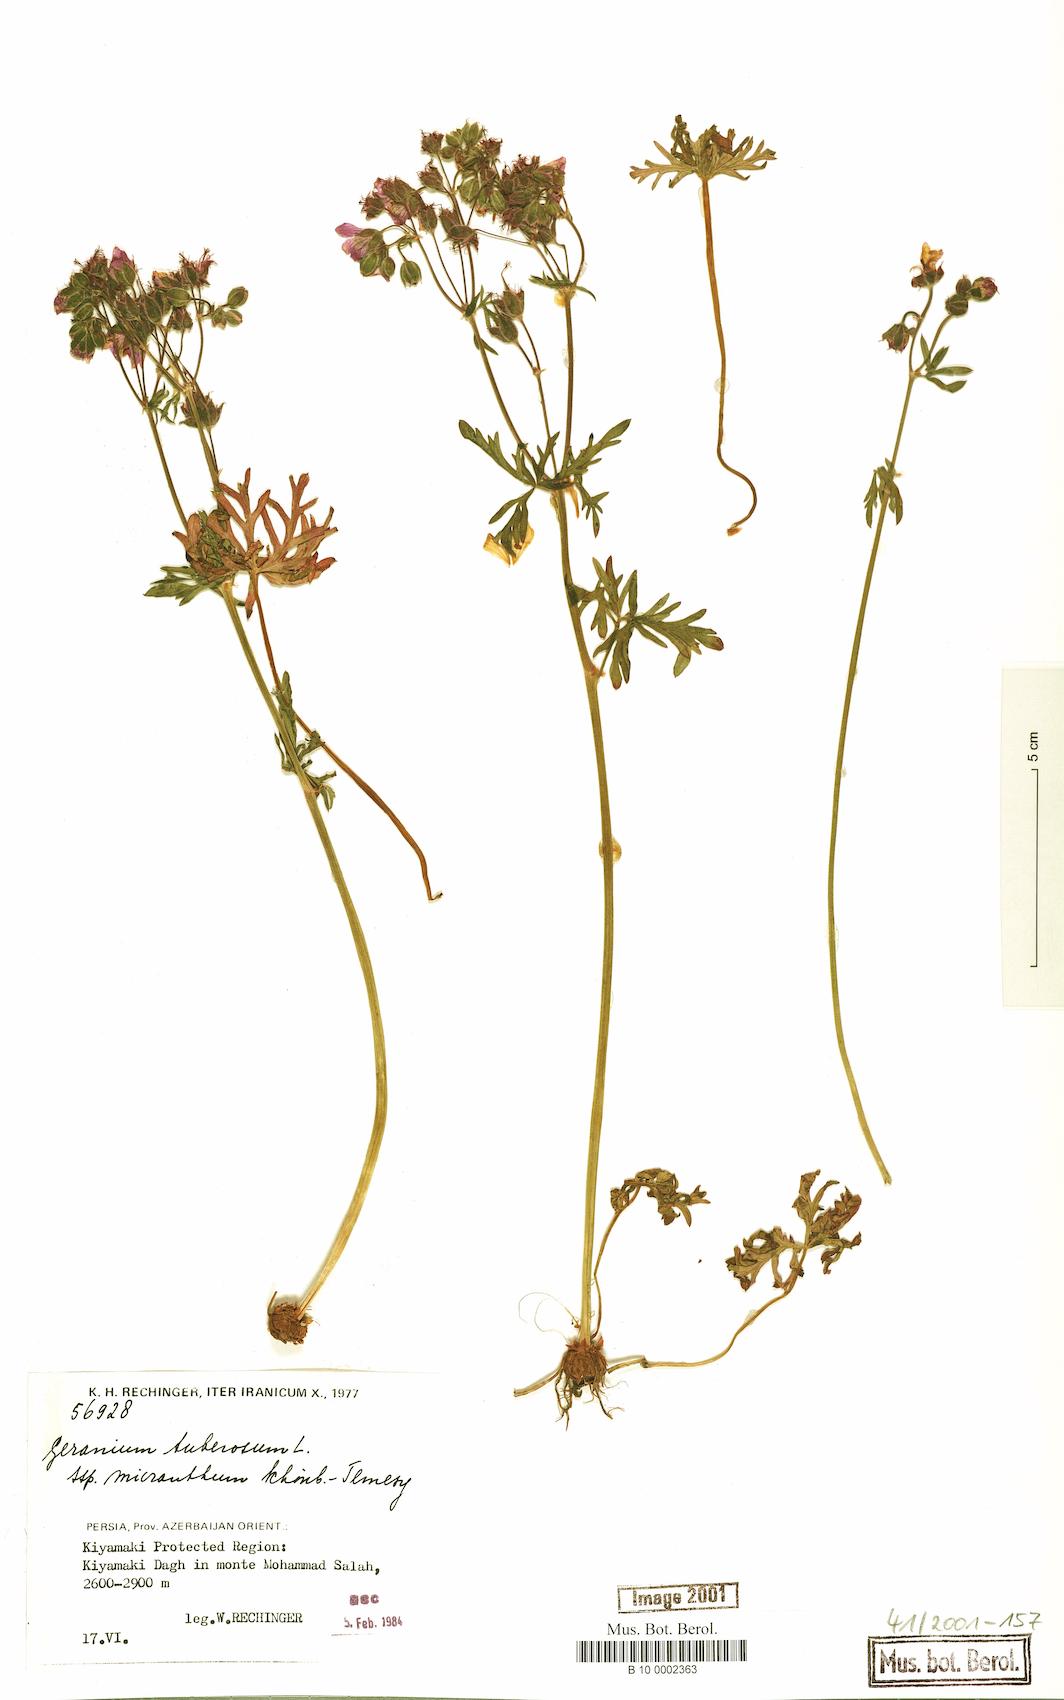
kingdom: Plantae
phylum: Tracheophyta
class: Magnoliopsida
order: Geraniales
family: Geraniaceae
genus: Geranium
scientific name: Geranium tuberosum
